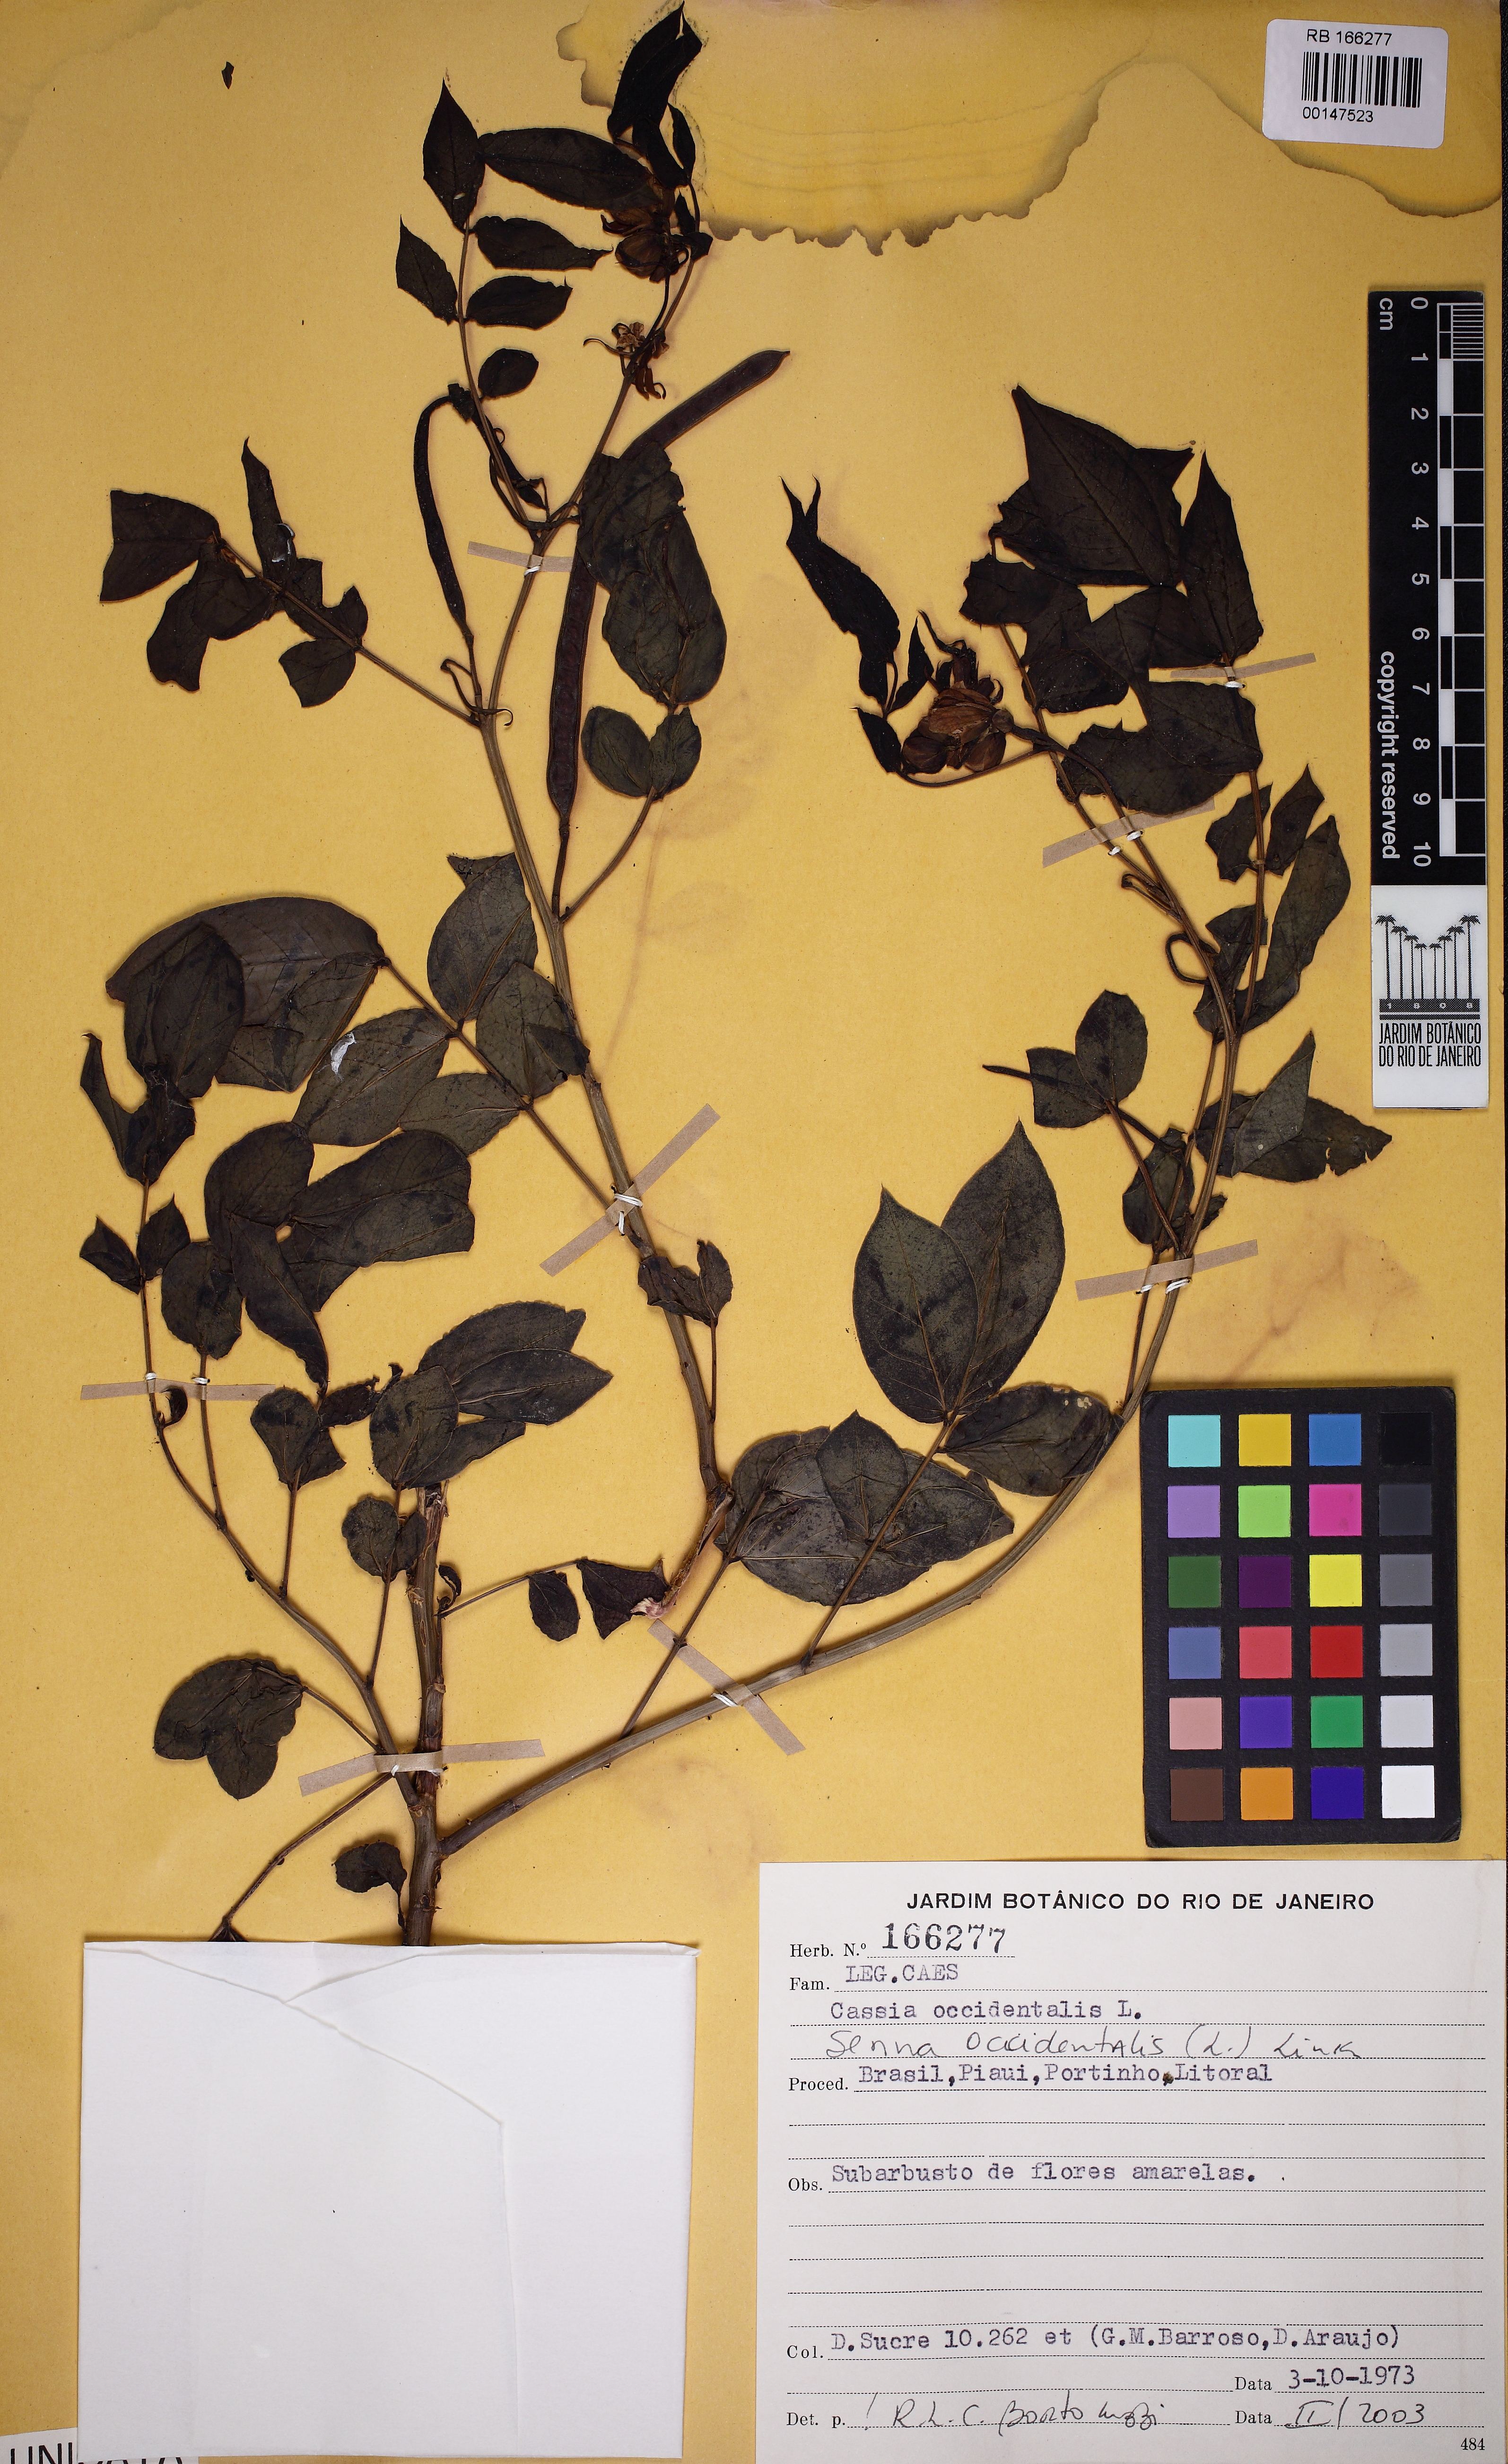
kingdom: Plantae
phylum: Tracheophyta
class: Magnoliopsida
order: Fabales
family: Fabaceae
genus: Senna
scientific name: Senna occidentalis
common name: Septicweed
